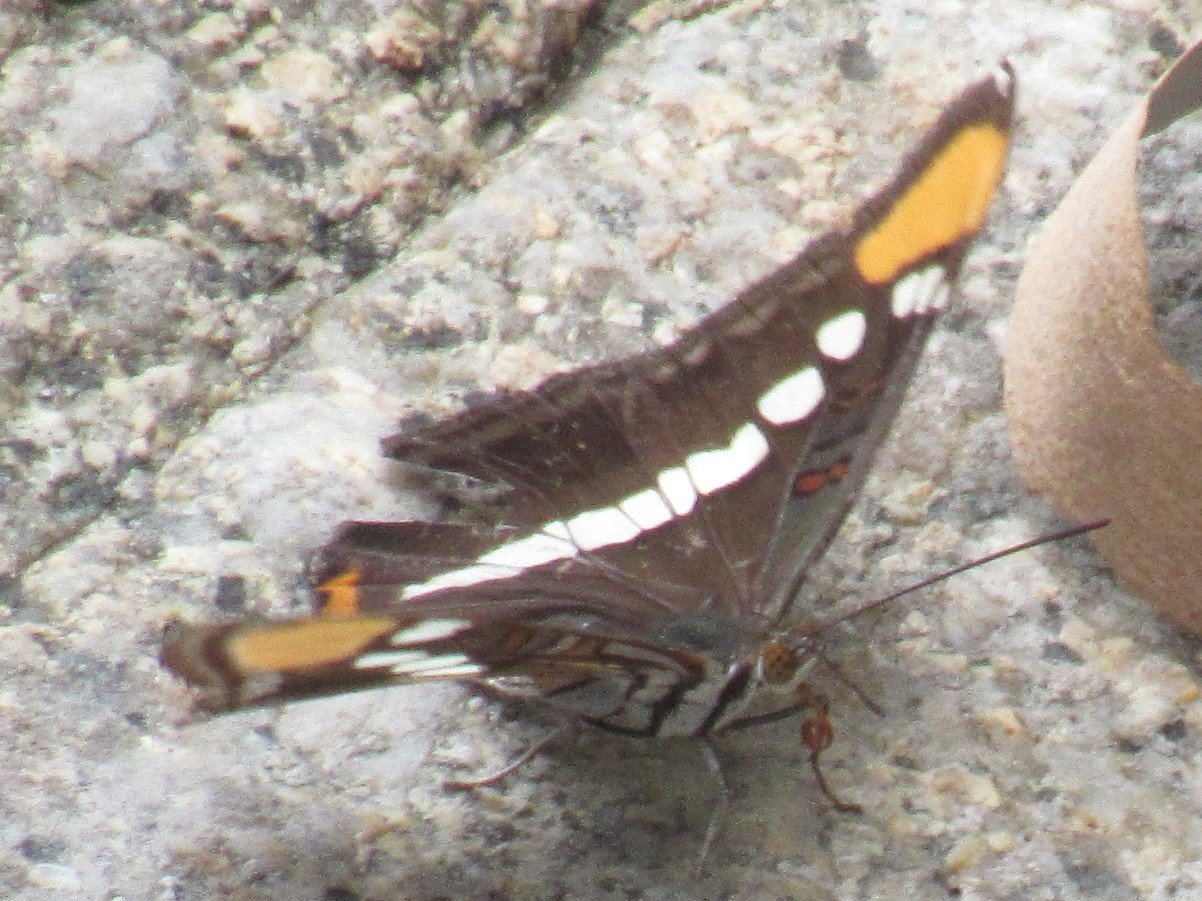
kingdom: Animalia
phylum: Arthropoda
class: Insecta
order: Lepidoptera
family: Nymphalidae
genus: Limenitis
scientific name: Limenitis bredowii
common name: Arizona Sister
